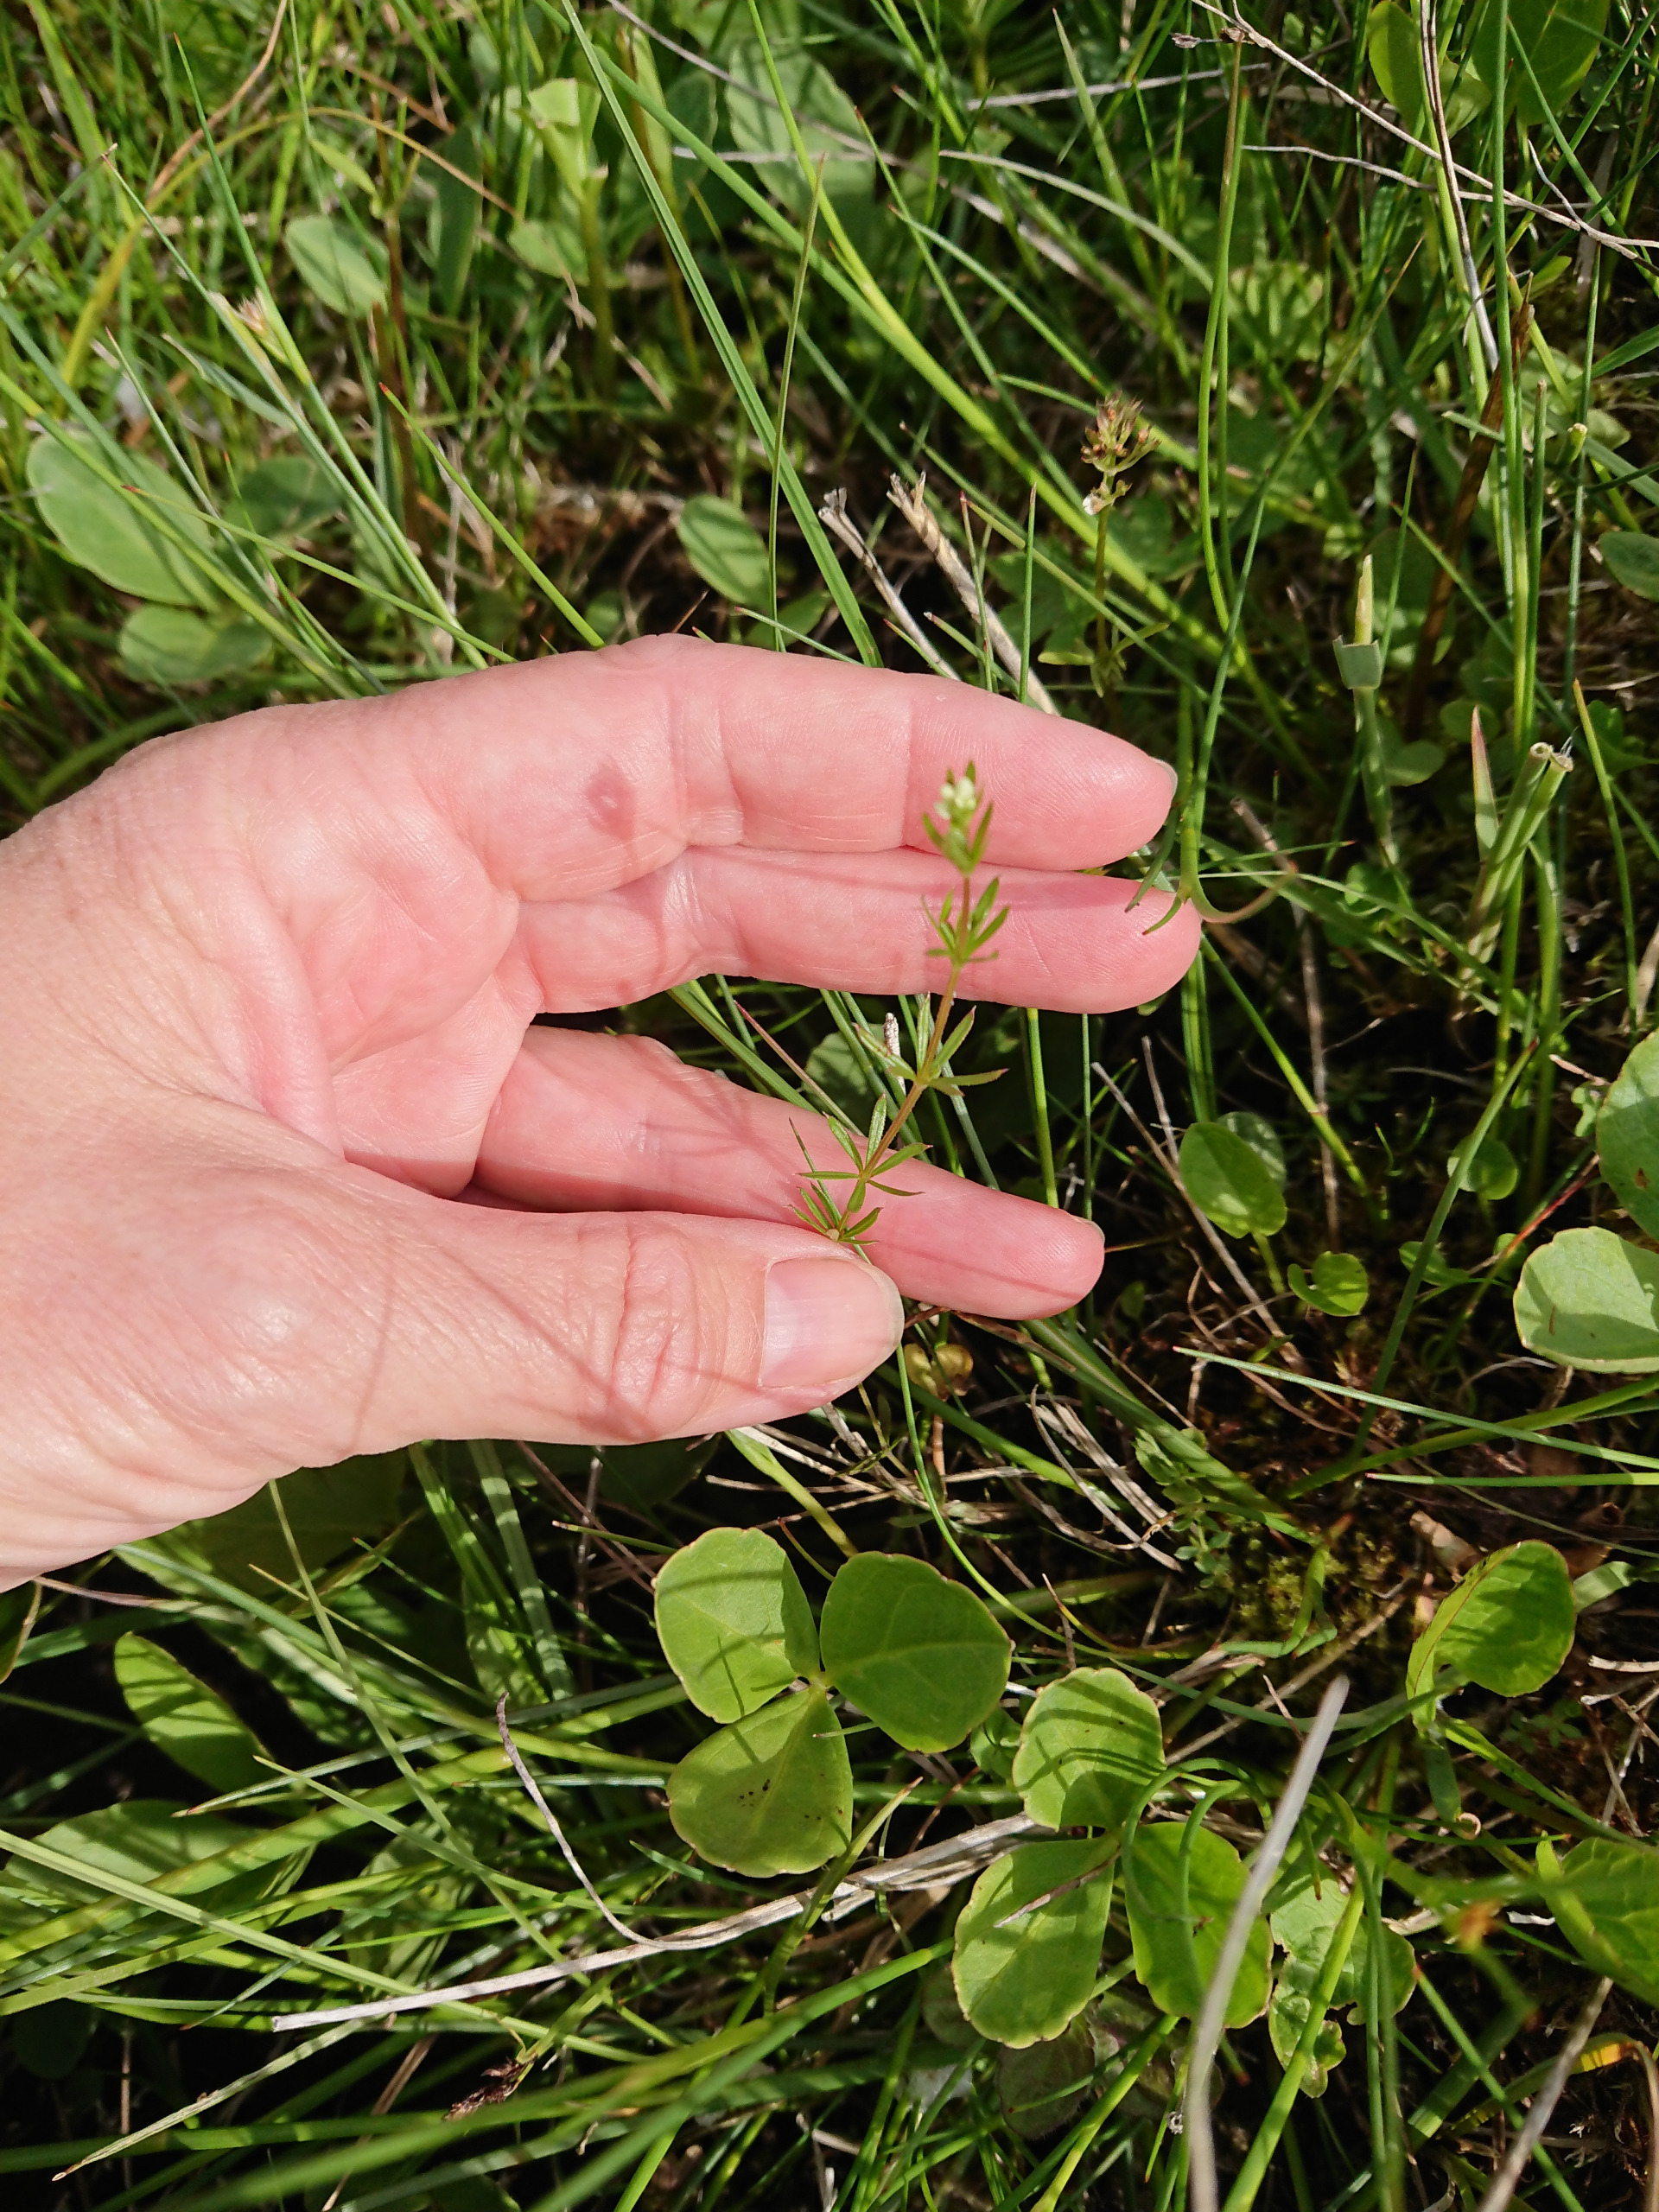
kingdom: Plantae
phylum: Tracheophyta
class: Magnoliopsida
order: Gentianales
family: Rubiaceae
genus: Galium
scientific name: Galium uliginosum
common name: Sump-snerre
